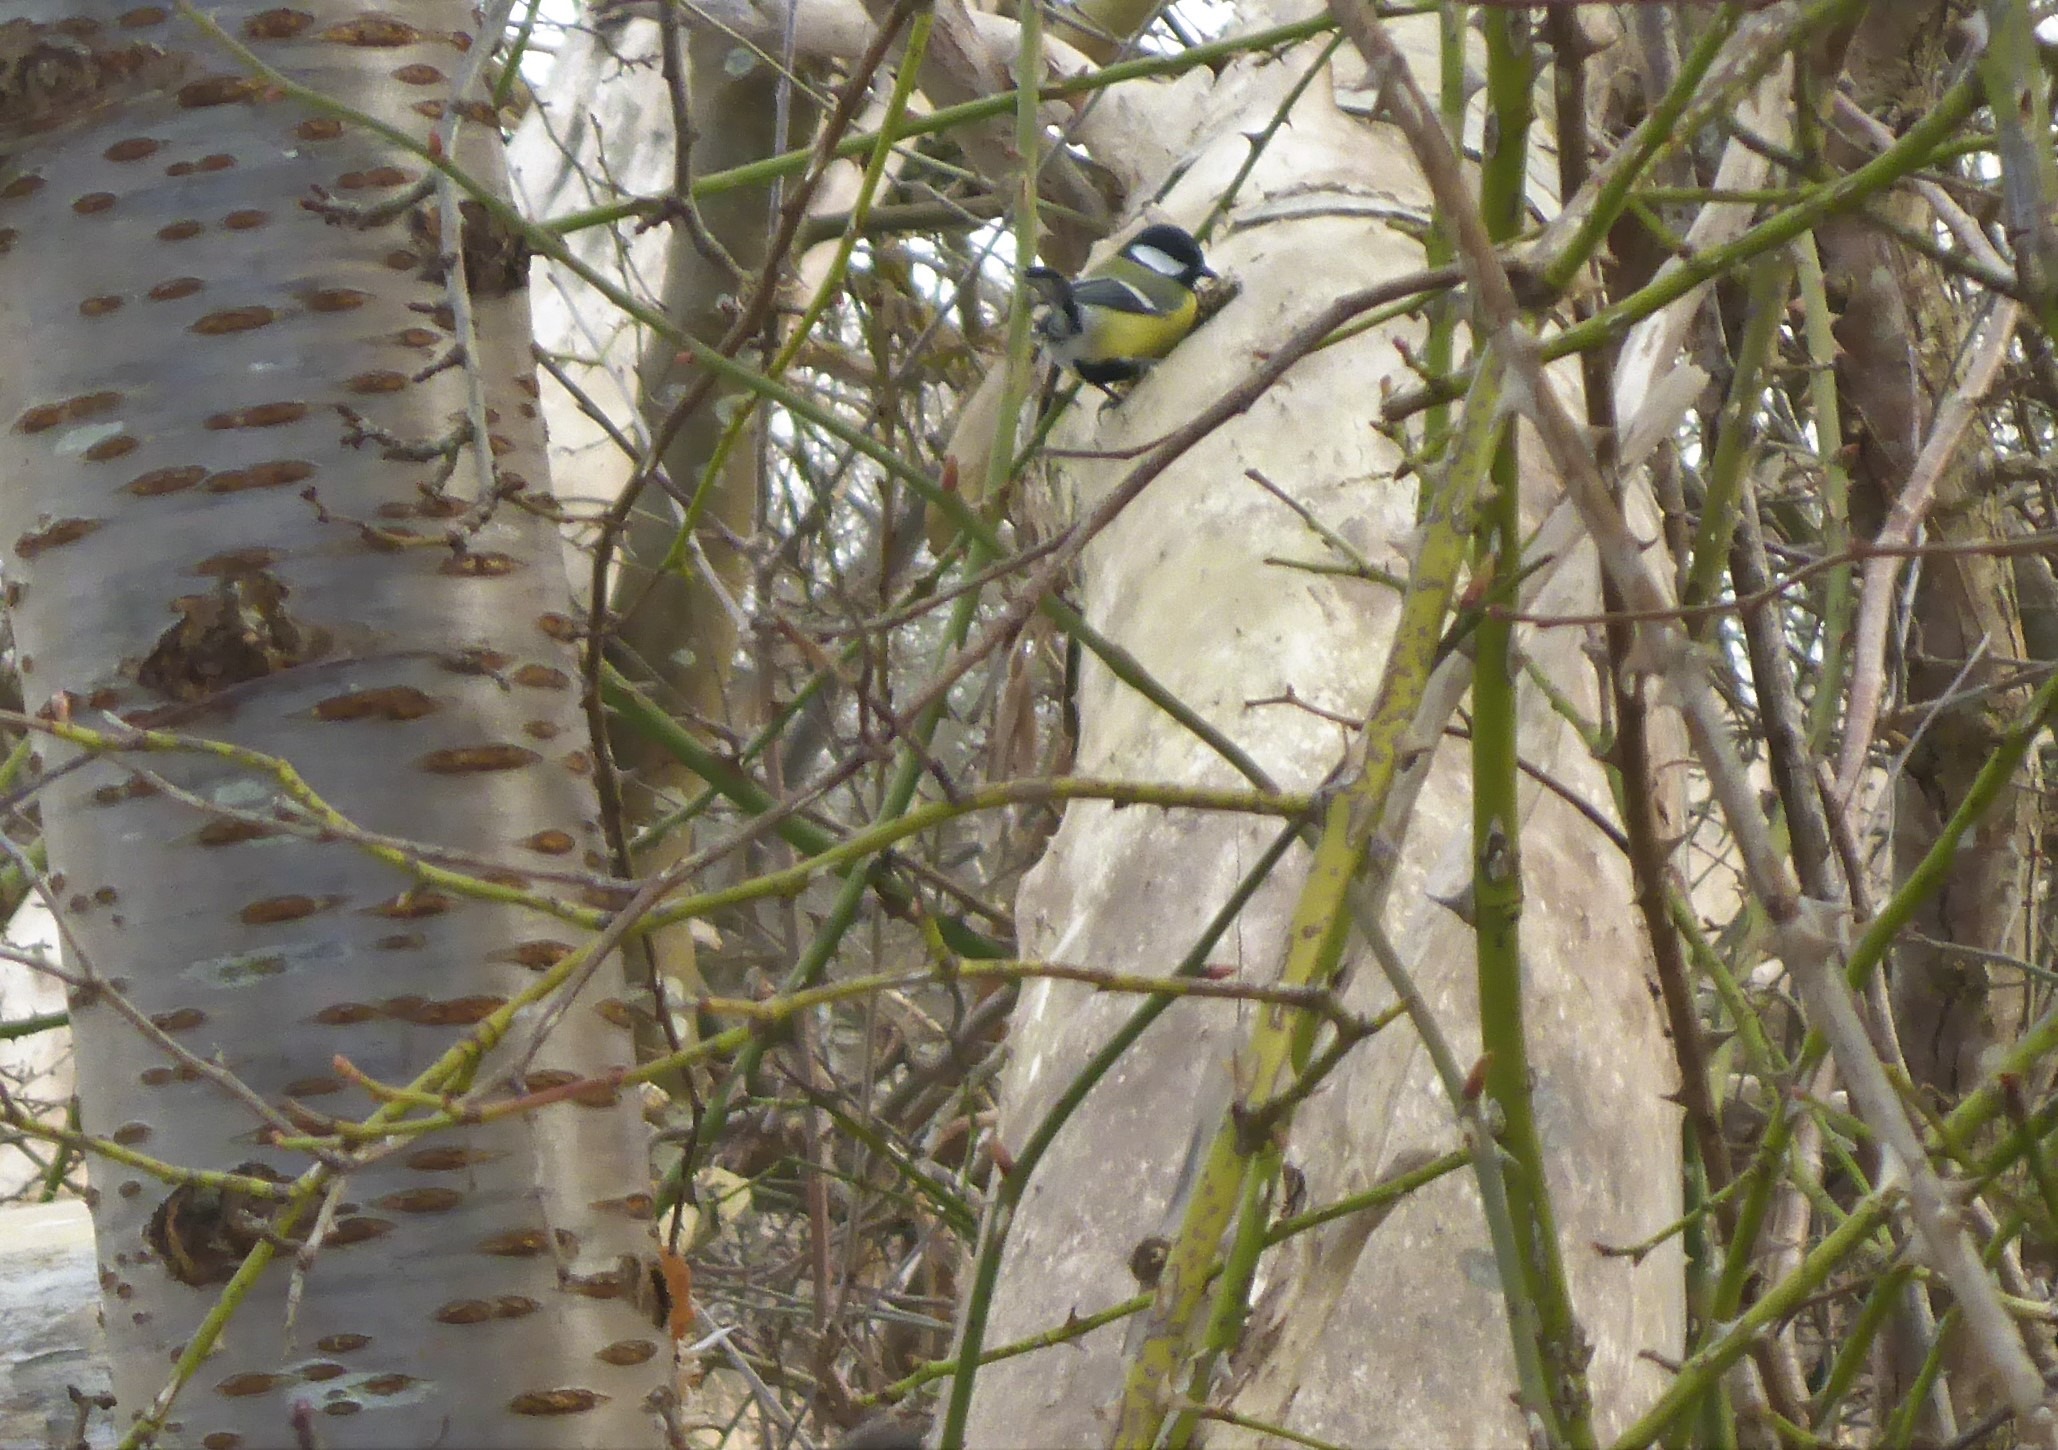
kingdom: Animalia
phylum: Chordata
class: Aves
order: Passeriformes
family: Paridae
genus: Parus
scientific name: Parus major
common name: Musvit
